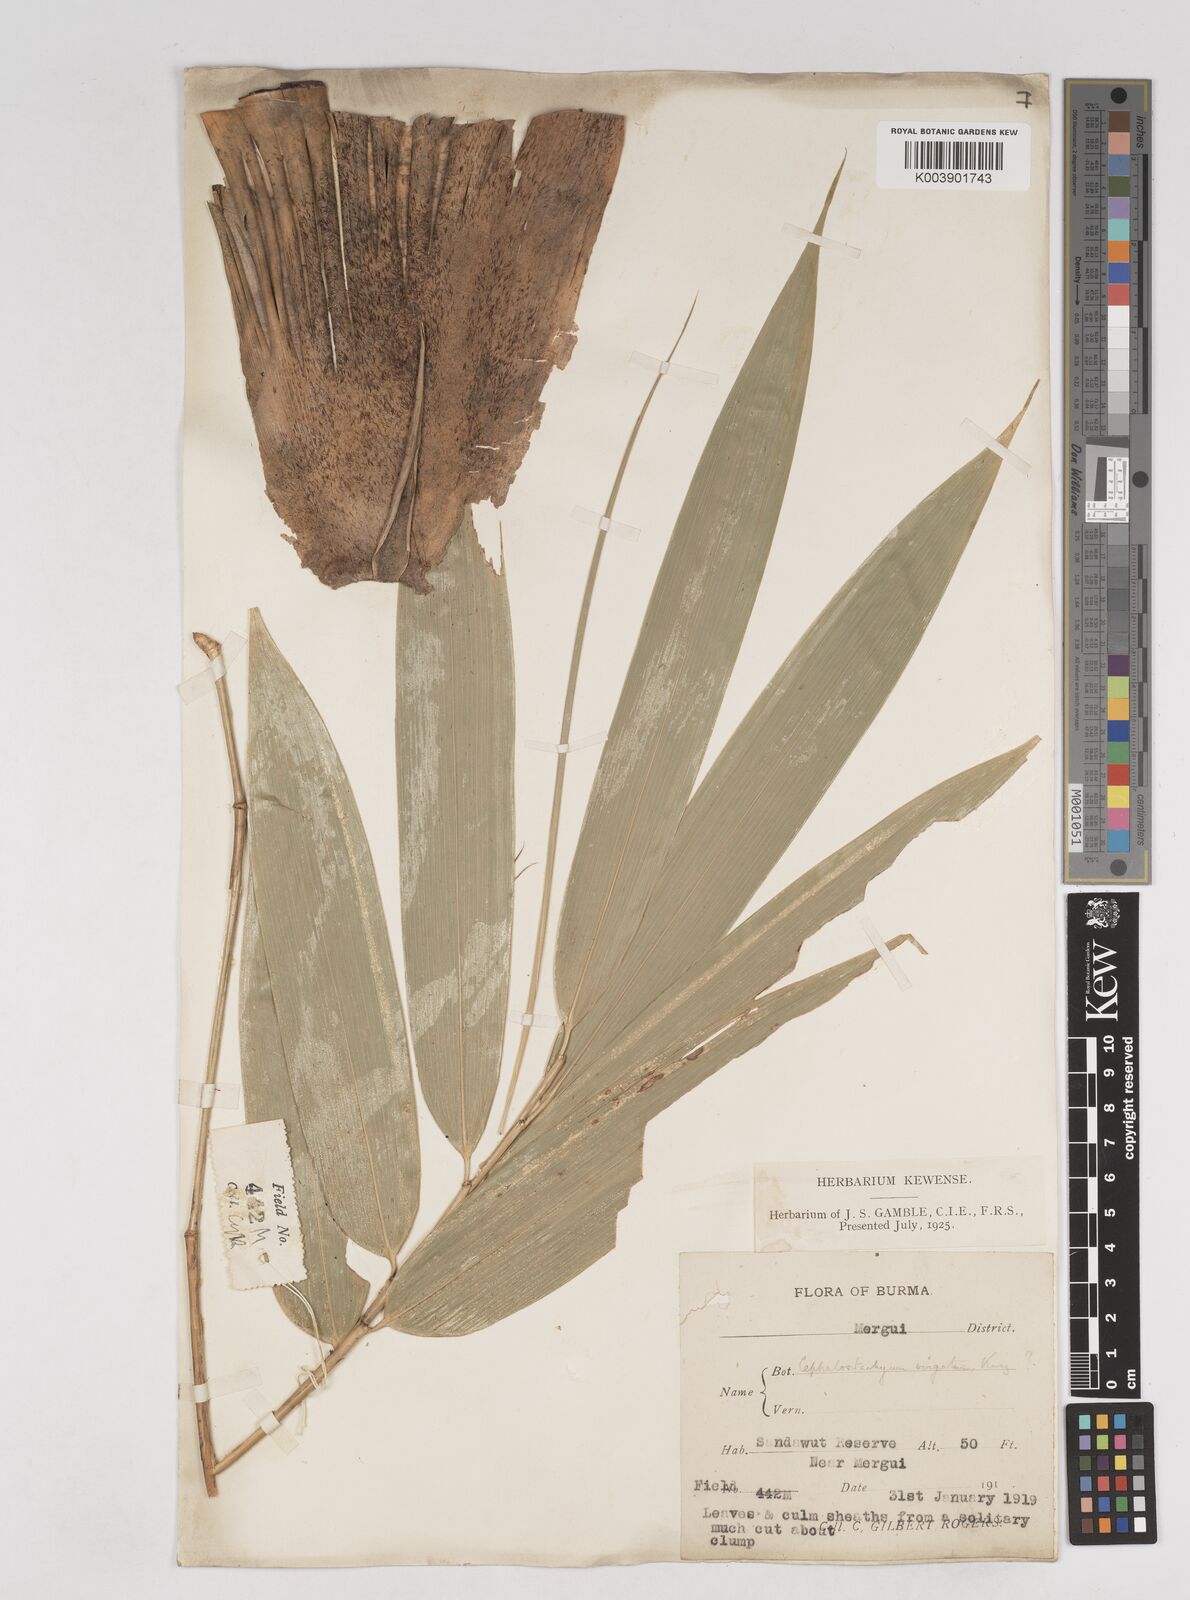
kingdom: Plantae
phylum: Tracheophyta
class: Liliopsida
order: Poales
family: Poaceae
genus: Schizostachyum
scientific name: Schizostachyum dullooa
